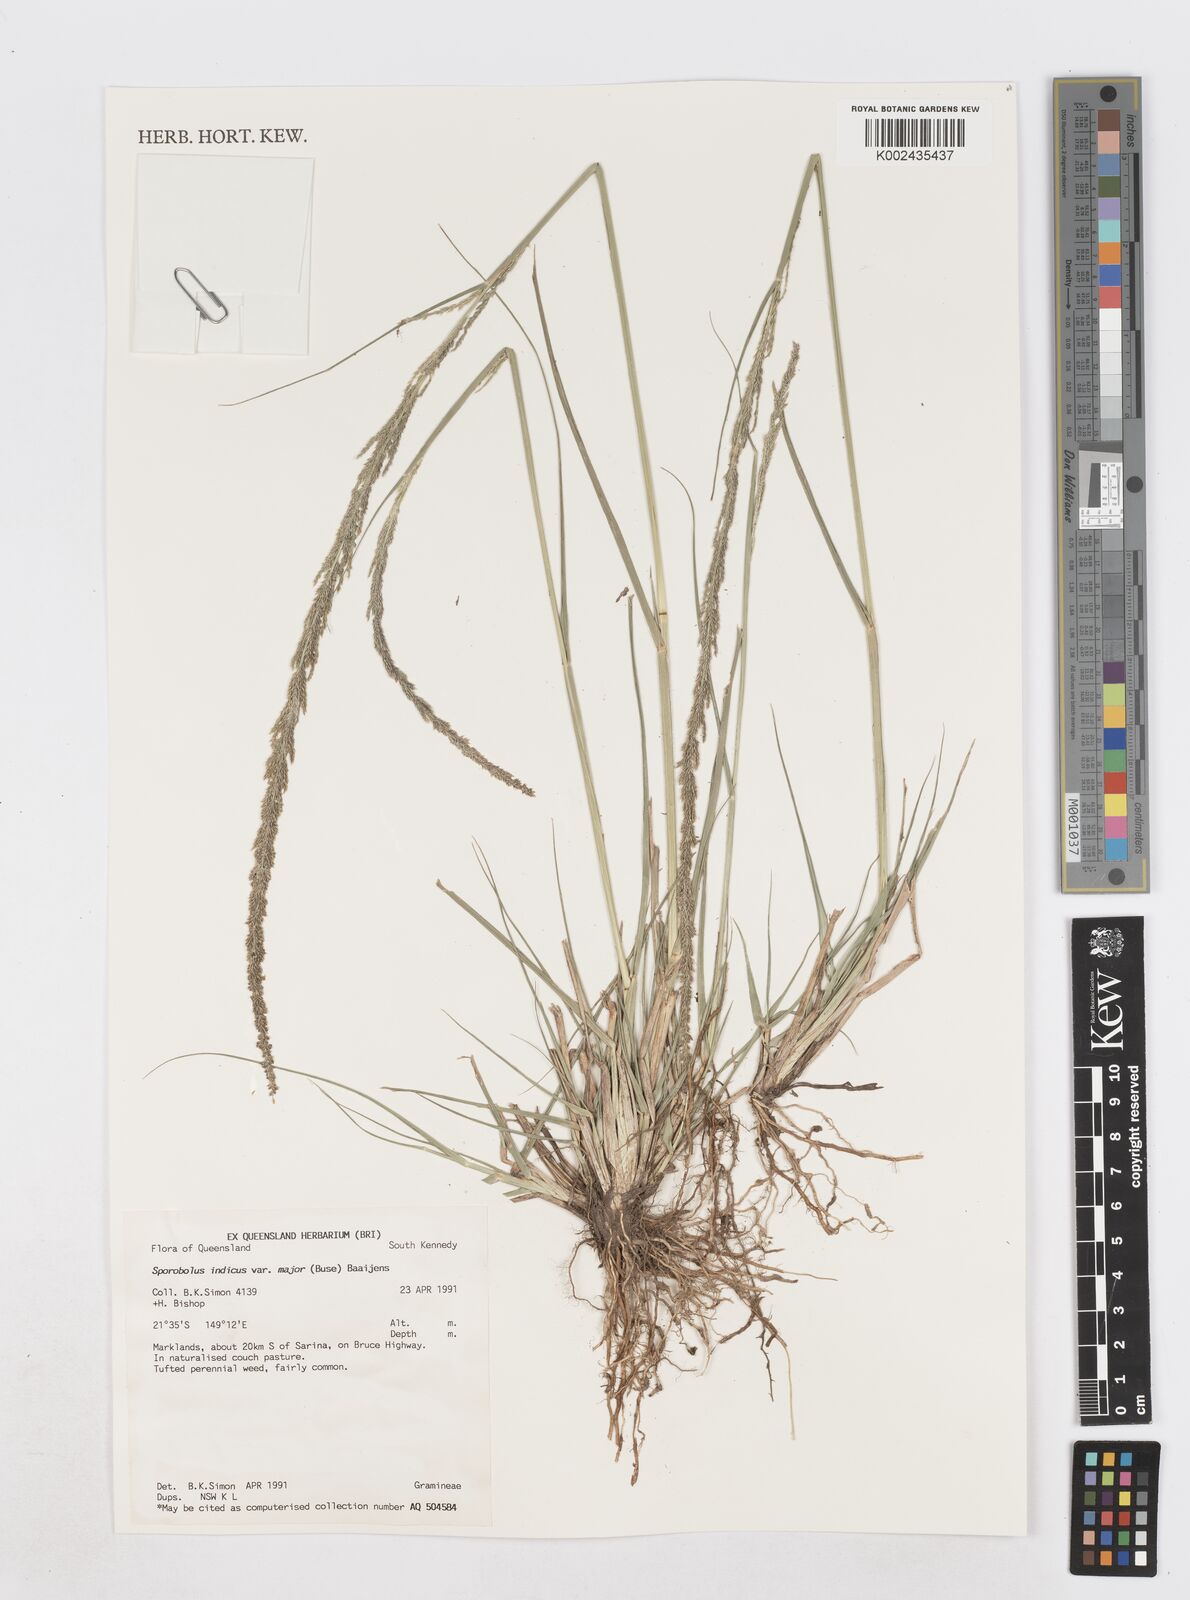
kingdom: Plantae
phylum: Tracheophyta
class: Liliopsida
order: Poales
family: Poaceae
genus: Sporobolus
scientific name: Sporobolus fertilis
